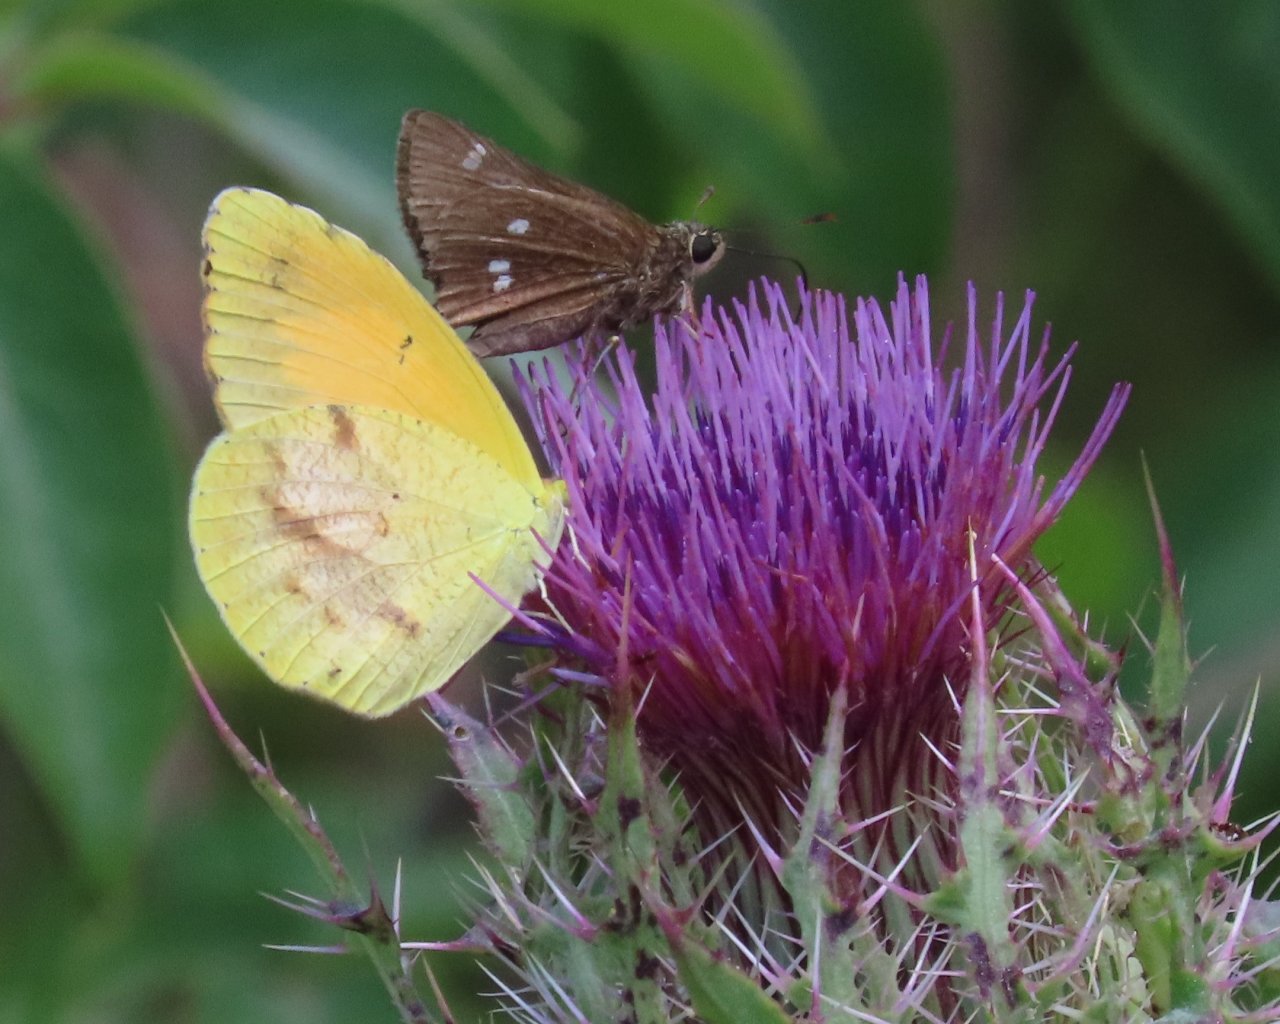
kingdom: Animalia
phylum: Arthropoda
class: Insecta
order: Lepidoptera
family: Pieridae
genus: Abaeis
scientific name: Abaeis nicippe
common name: Sleepy Orange
